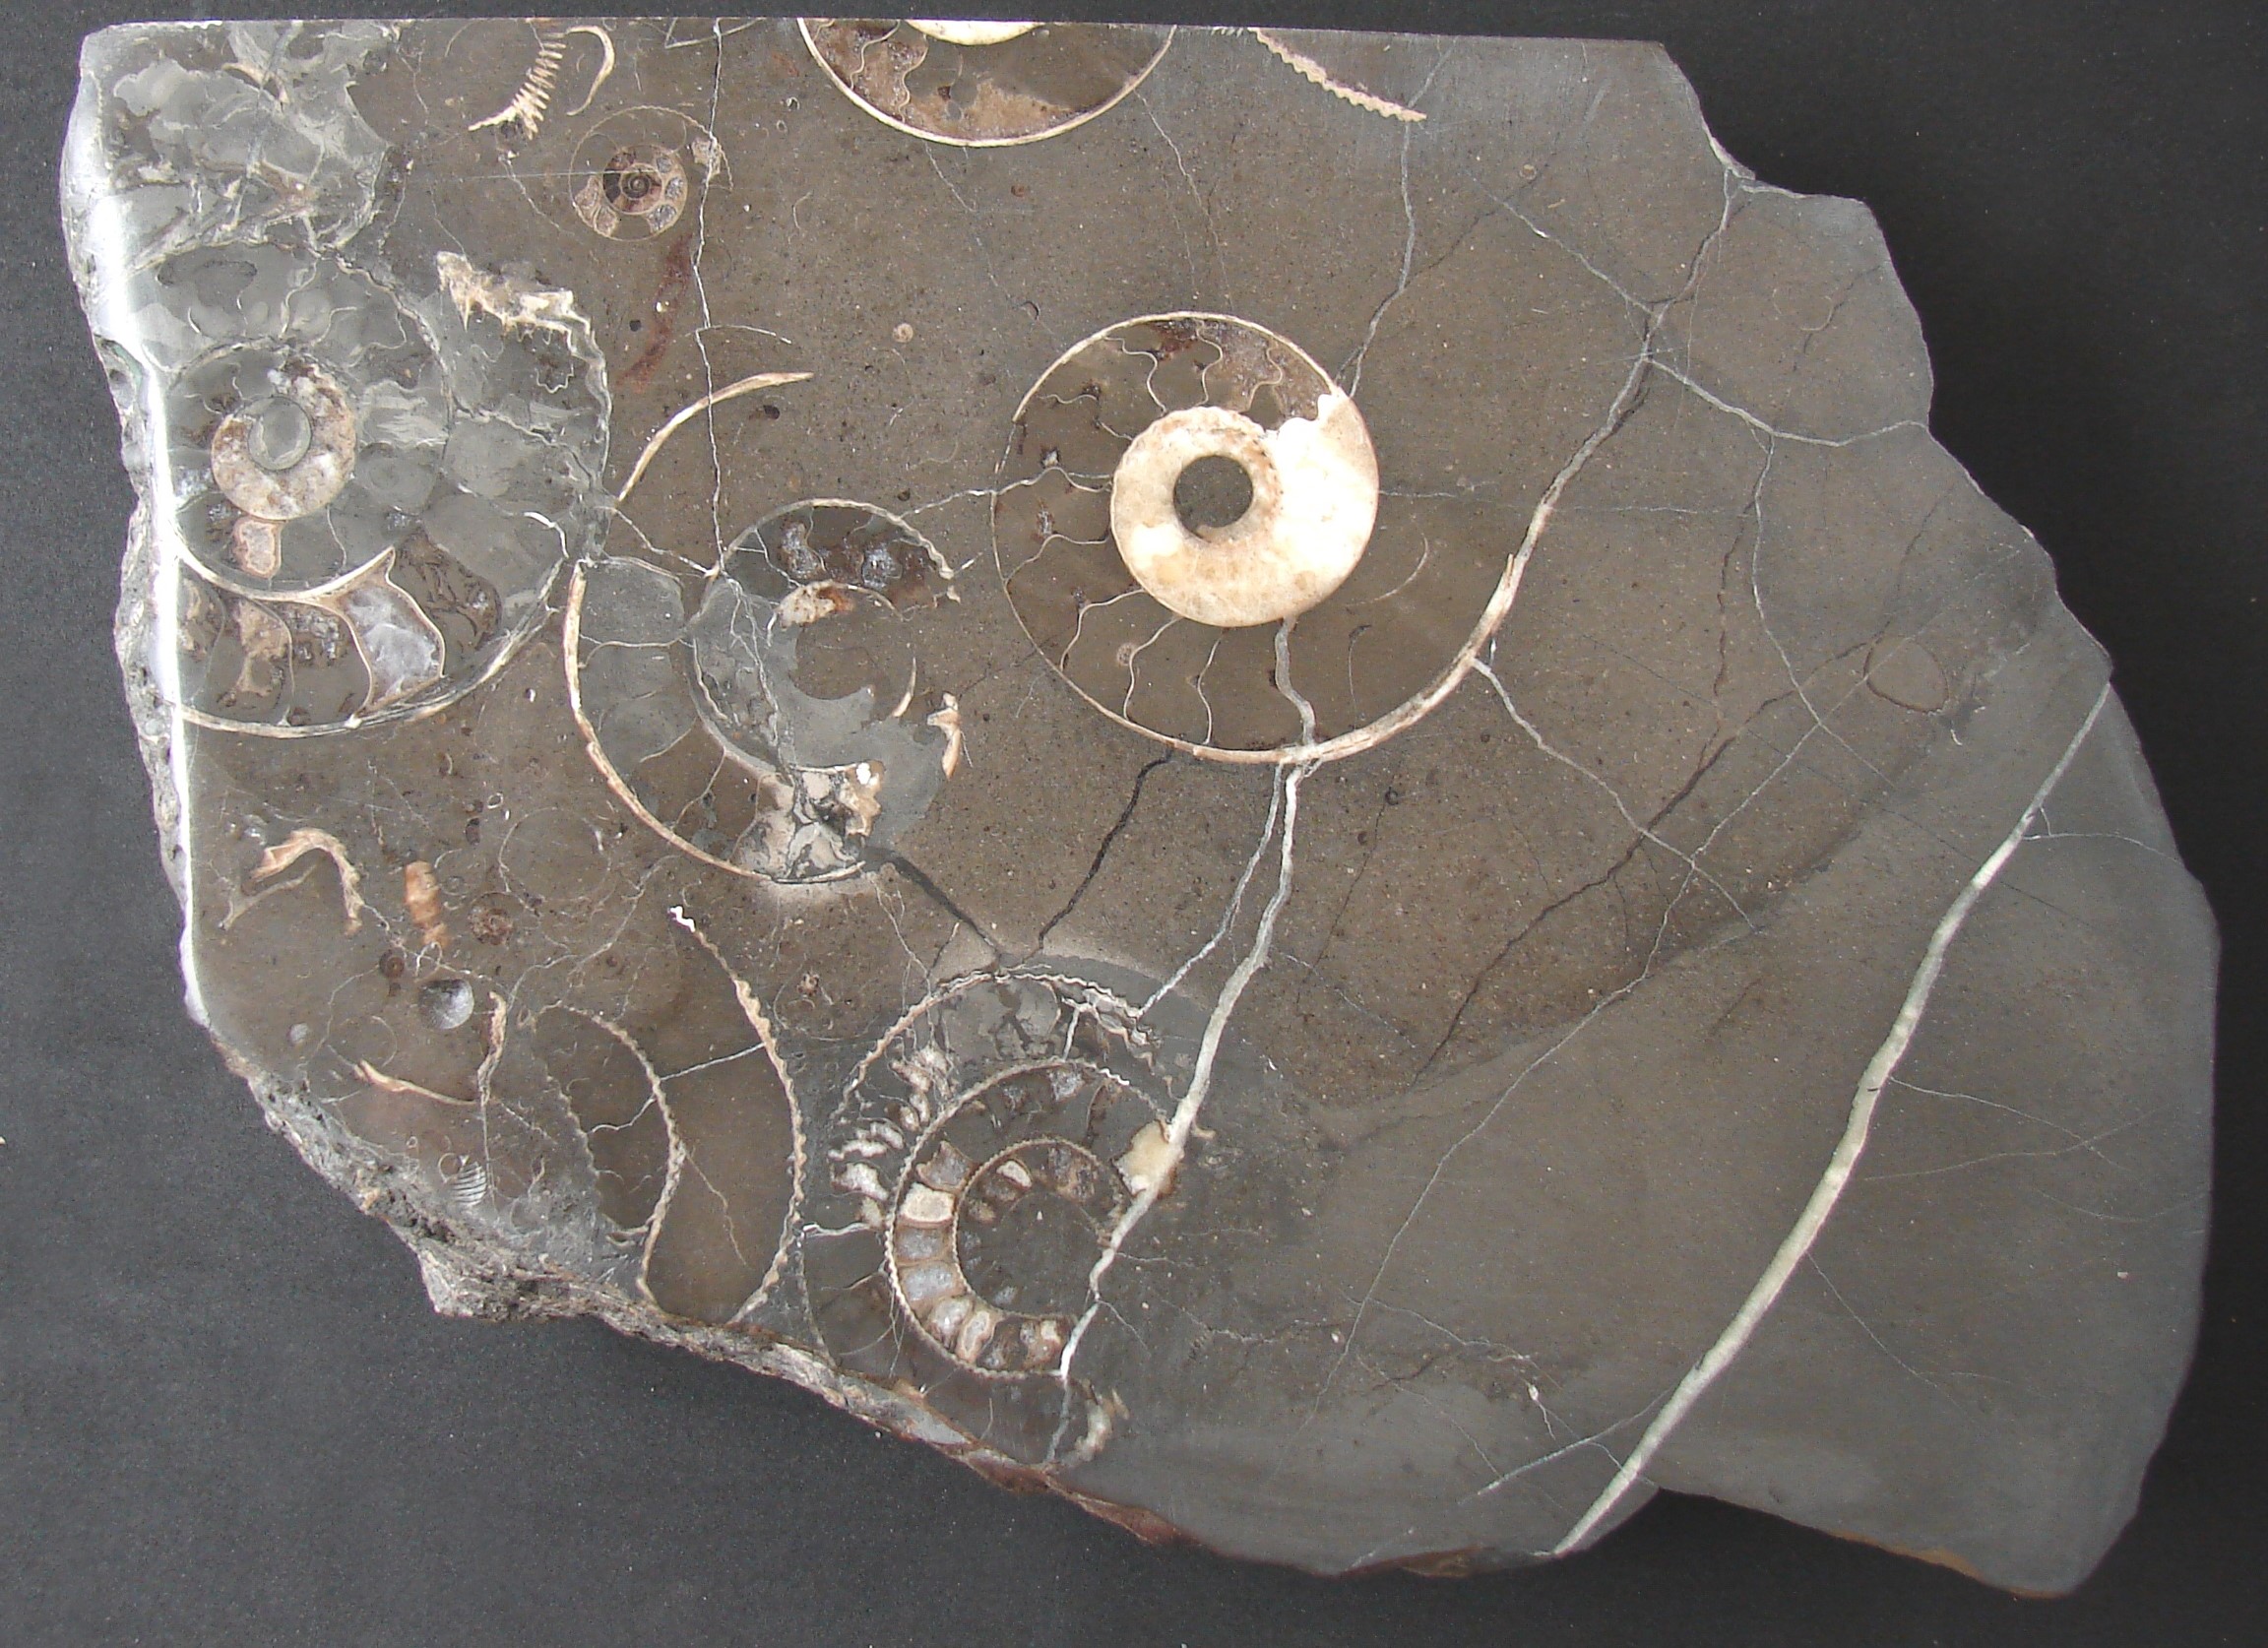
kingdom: Animalia
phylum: Mollusca
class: Cephalopoda
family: Hildoceratidae
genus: Hildoceras
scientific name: Hildoceras lusitanicum
